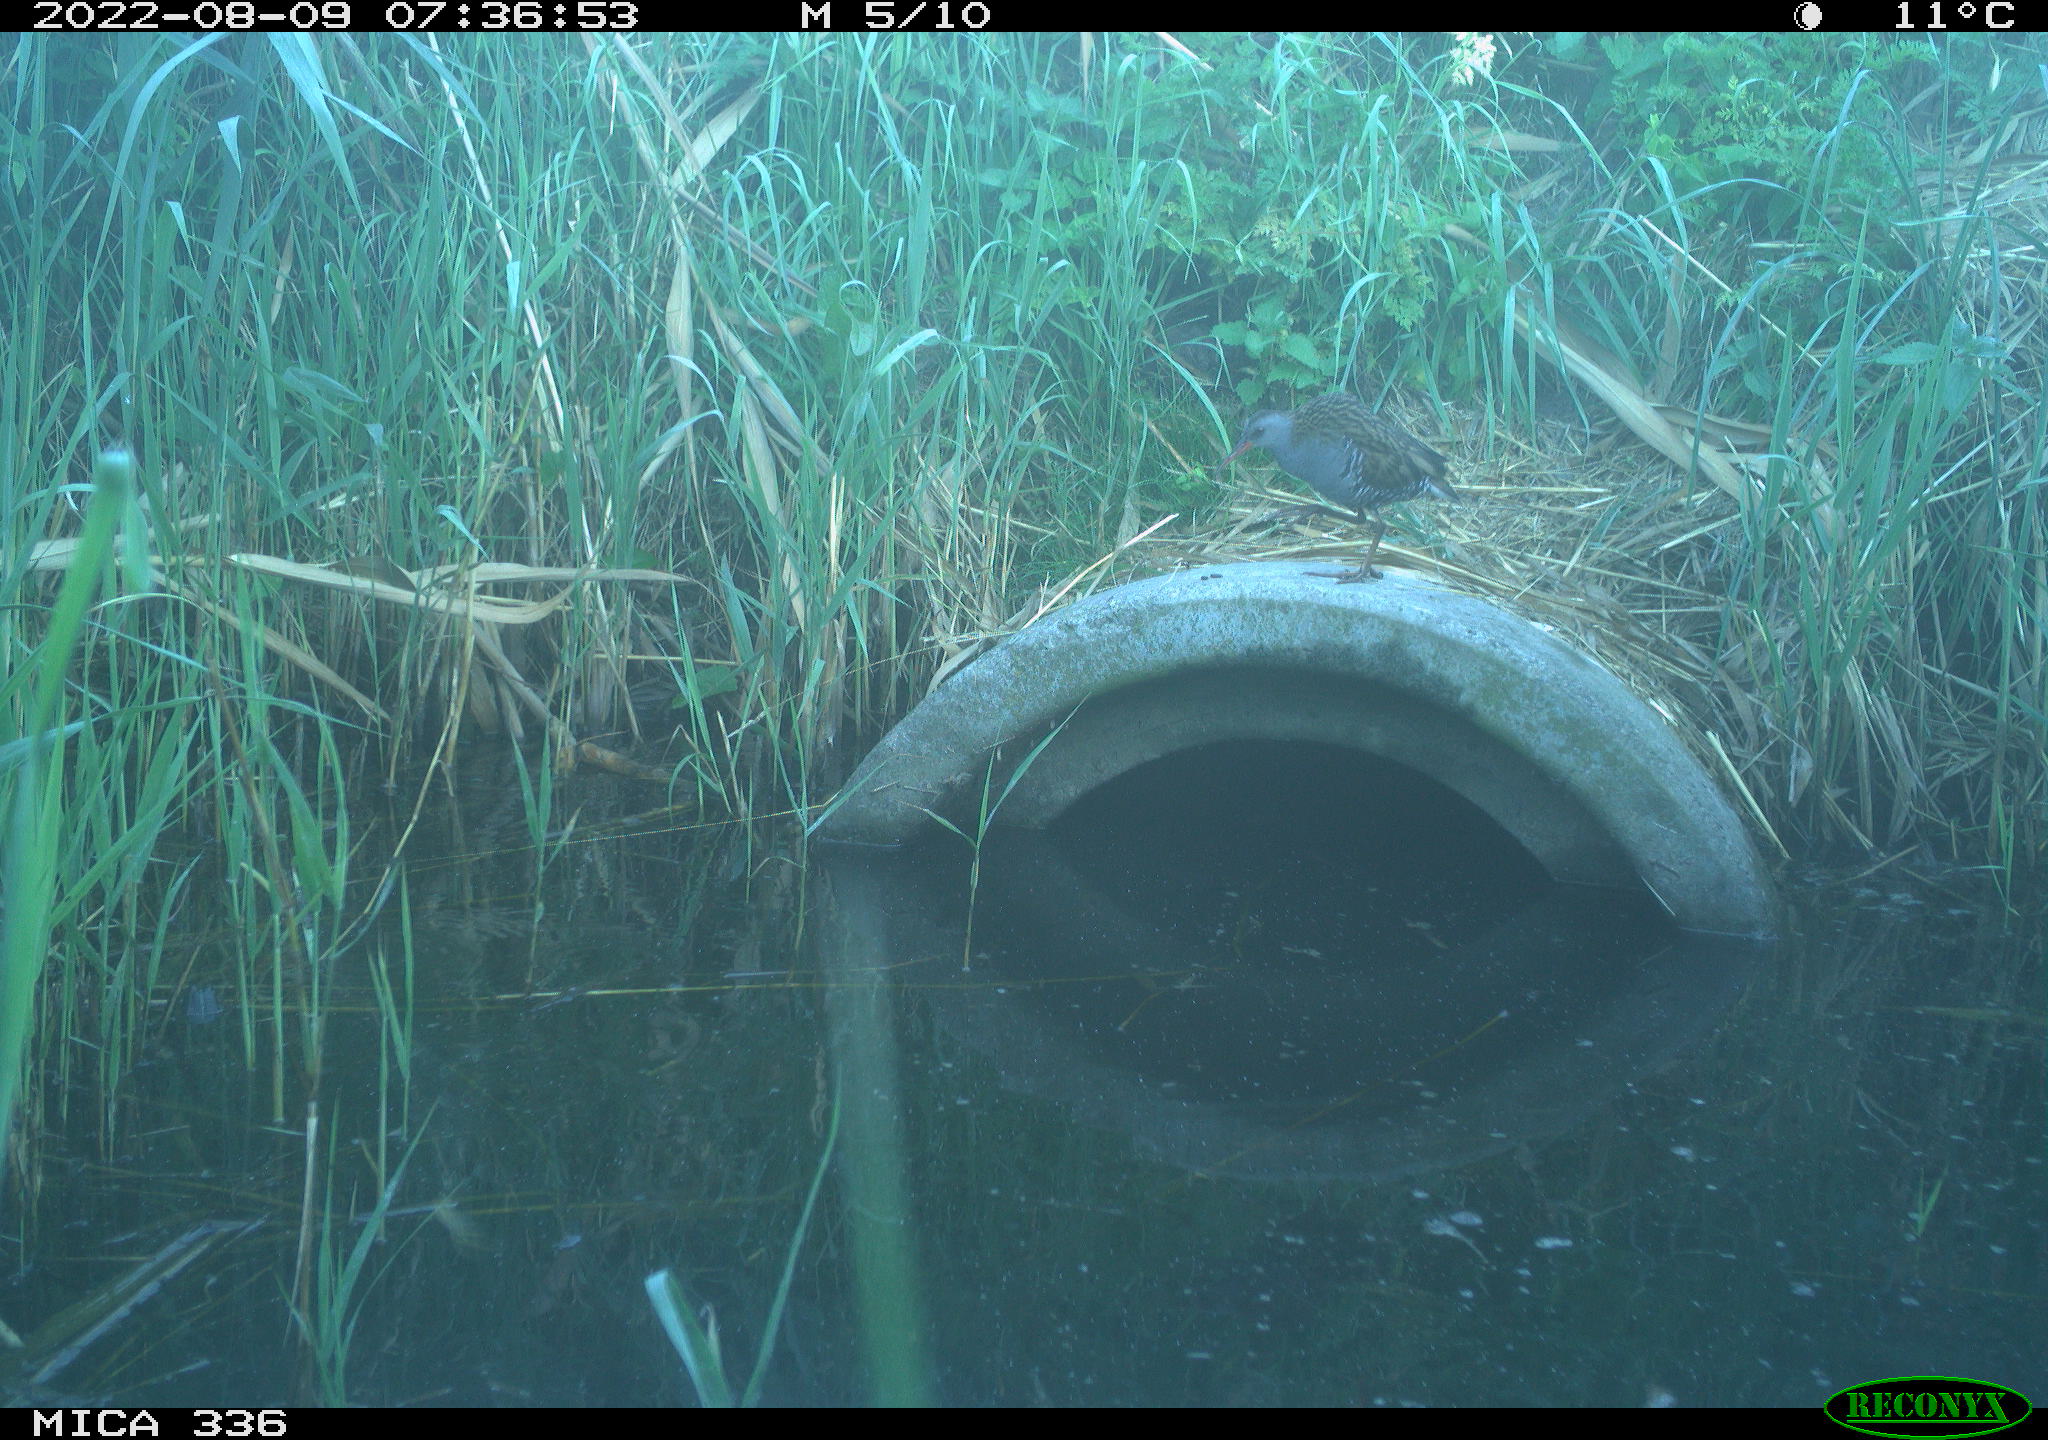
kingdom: Animalia
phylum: Chordata
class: Aves
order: Gruiformes
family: Rallidae
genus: Rallus
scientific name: Rallus aquaticus
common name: Water rail
